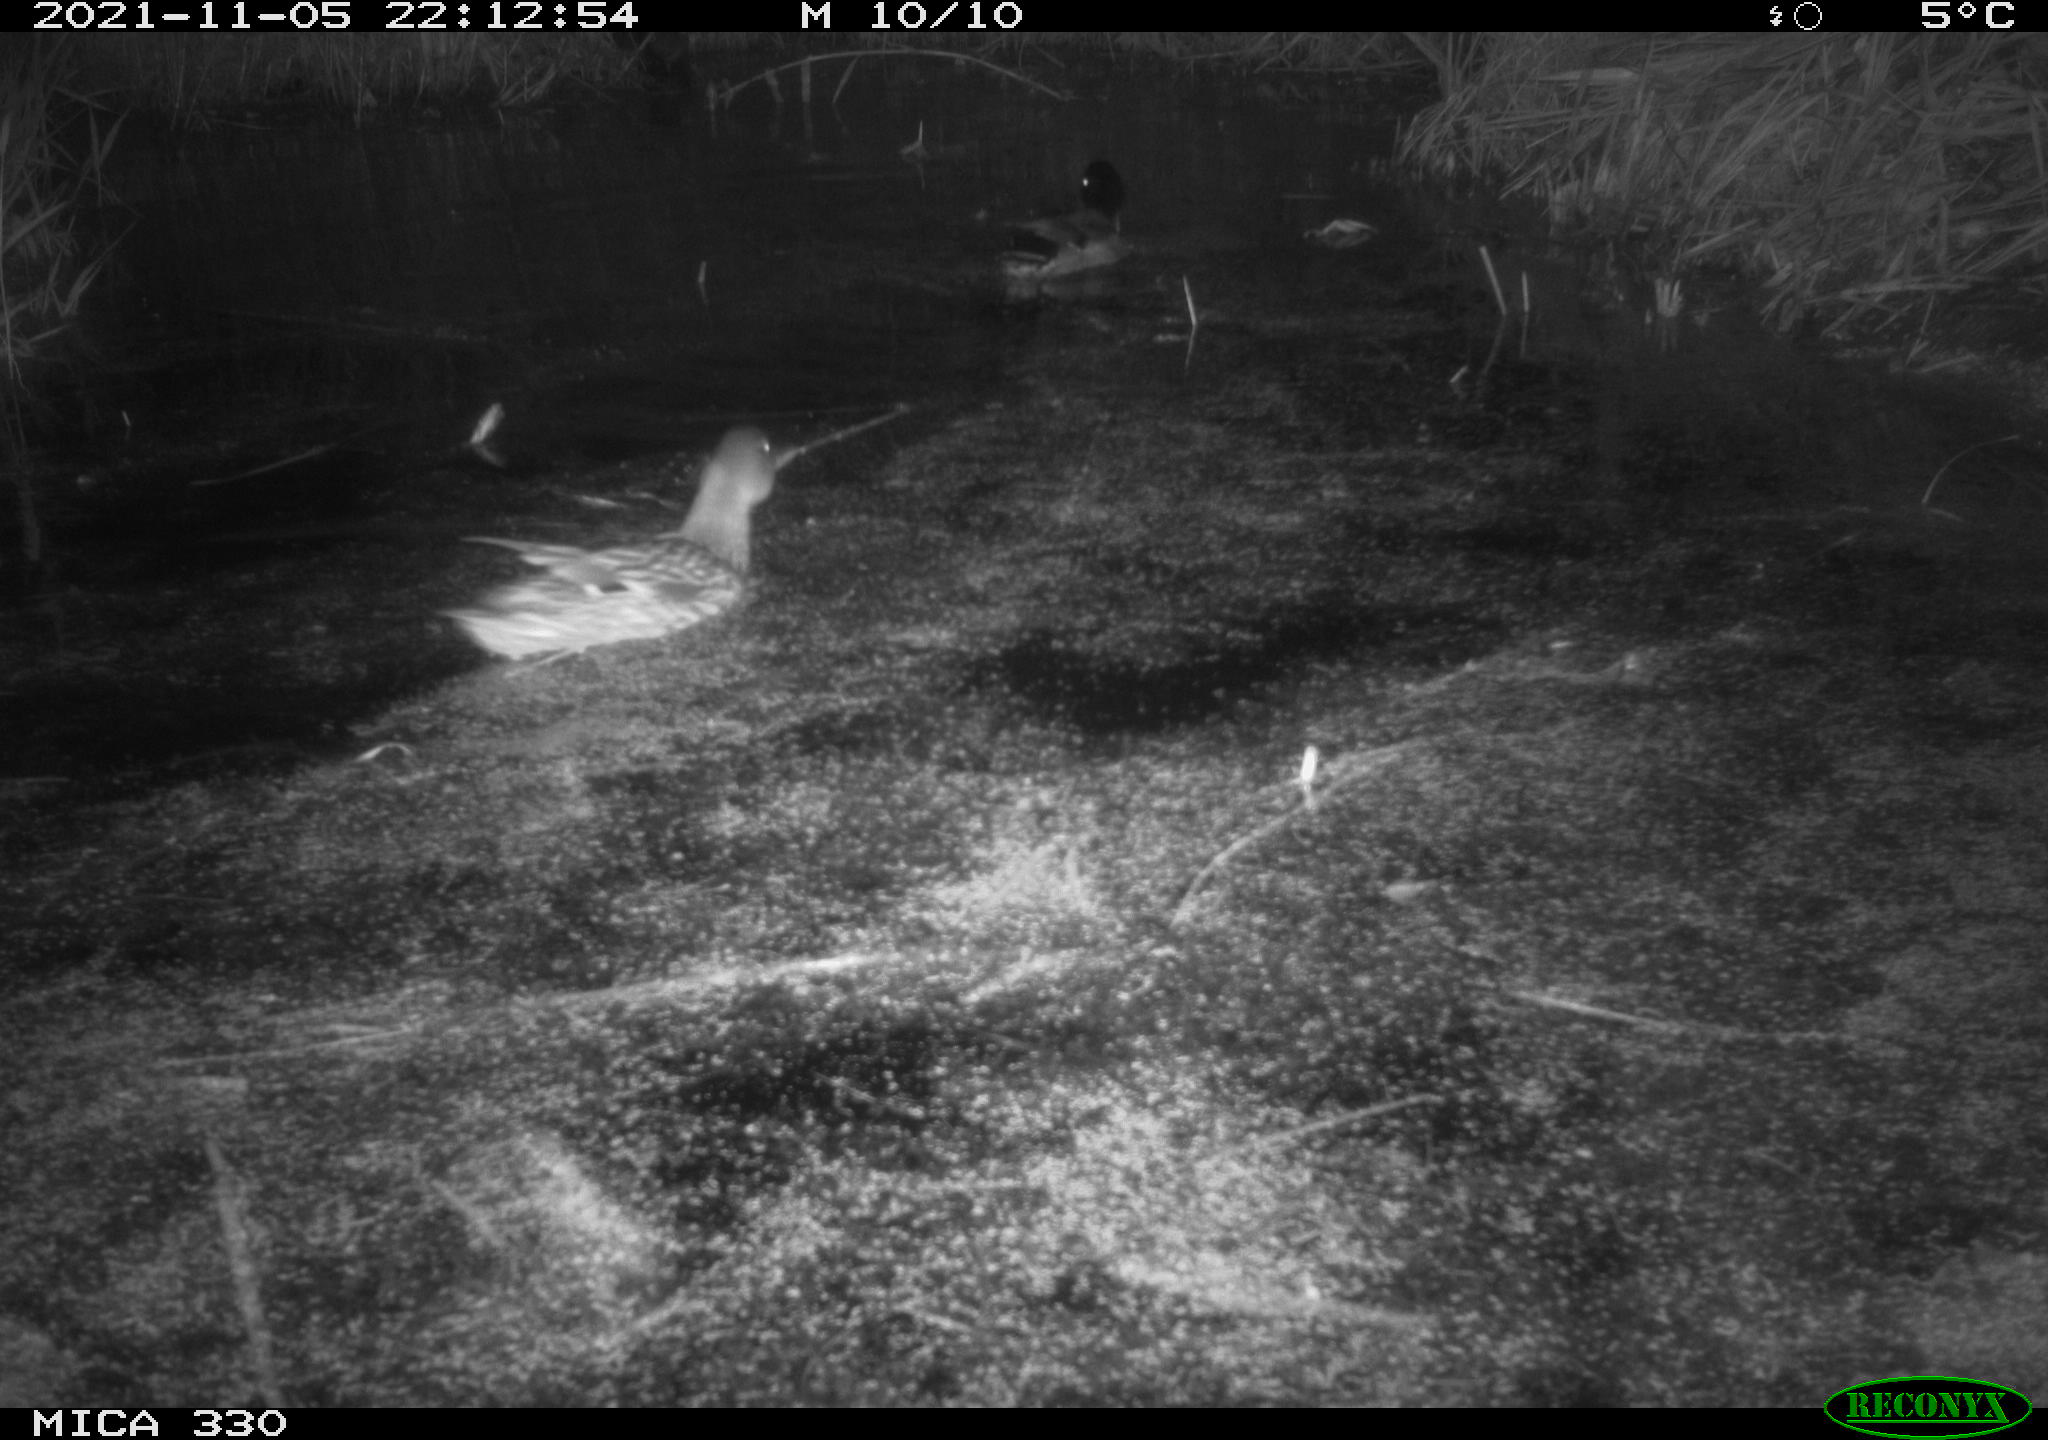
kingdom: Animalia
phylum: Chordata
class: Aves
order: Anseriformes
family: Anatidae
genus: Anas
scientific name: Anas platyrhynchos
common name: Mallard
